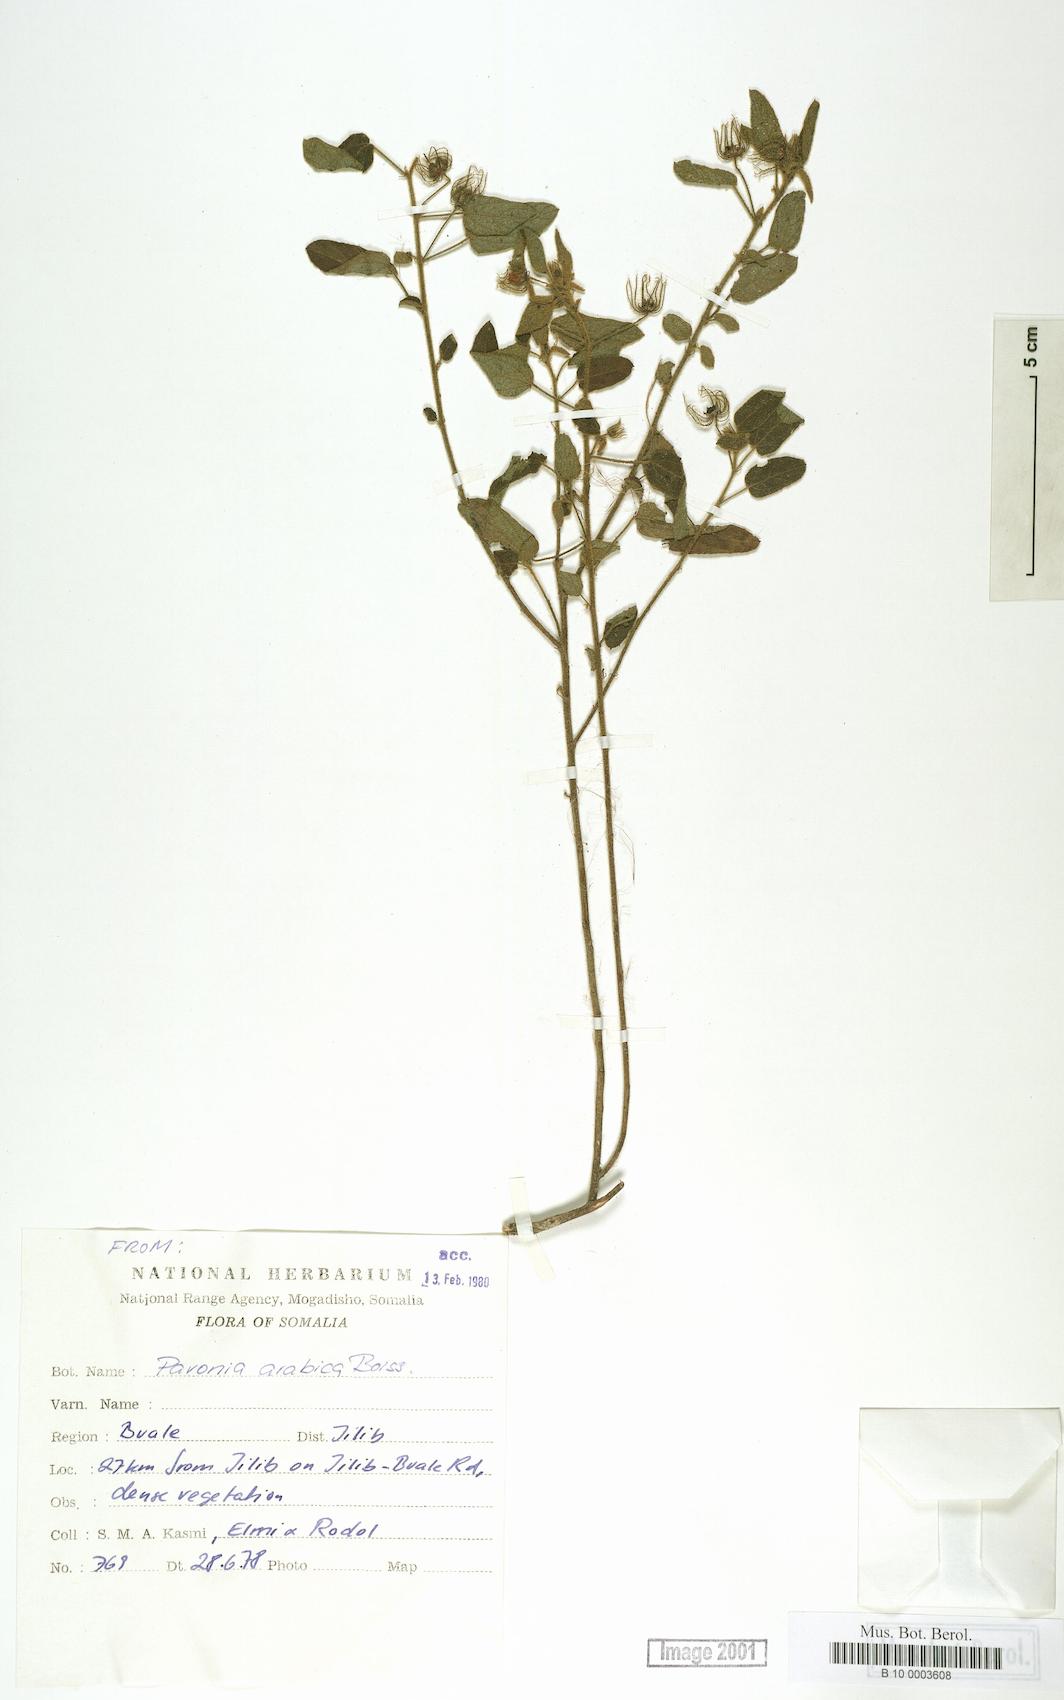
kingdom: Plantae
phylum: Tracheophyta
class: Magnoliopsida
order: Malvales
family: Malvaceae
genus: Pavonia
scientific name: Pavonia arabica
